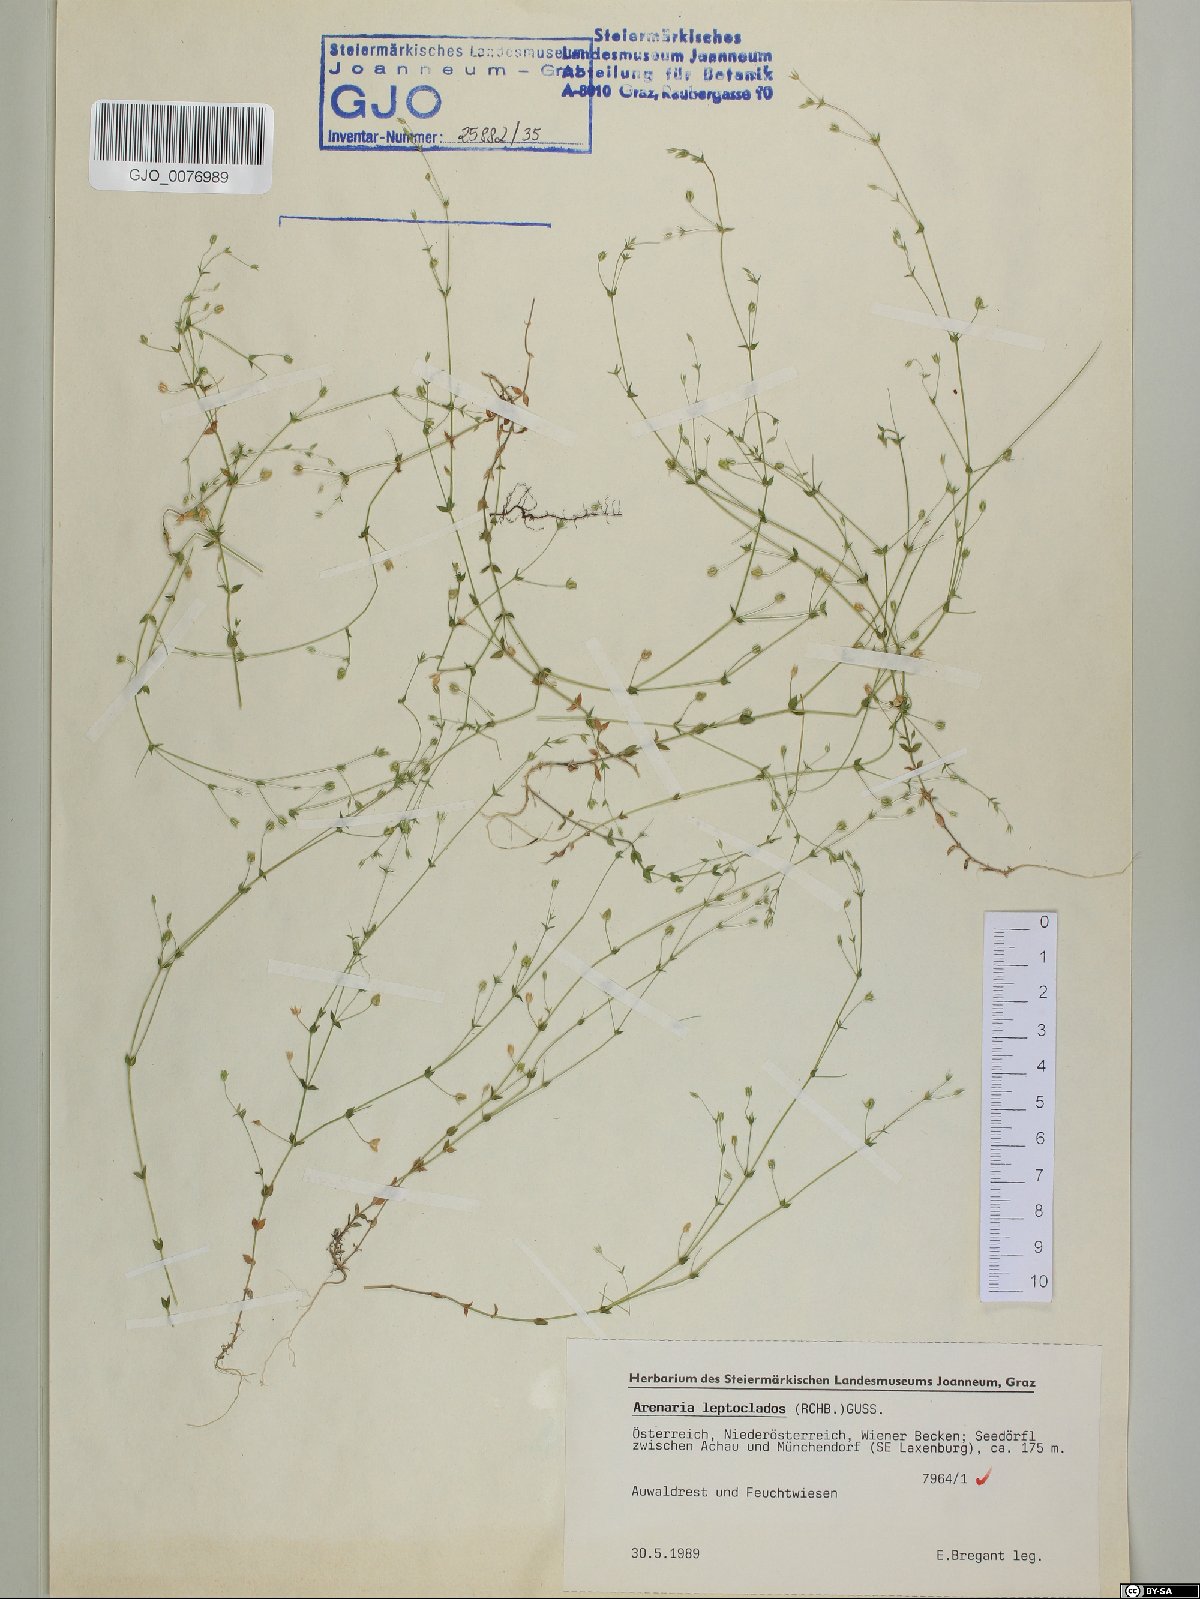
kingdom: Plantae
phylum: Tracheophyta
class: Magnoliopsida
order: Caryophyllales
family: Caryophyllaceae
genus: Arenaria
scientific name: Arenaria leptoclados
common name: Thyme-leaved sandwort
